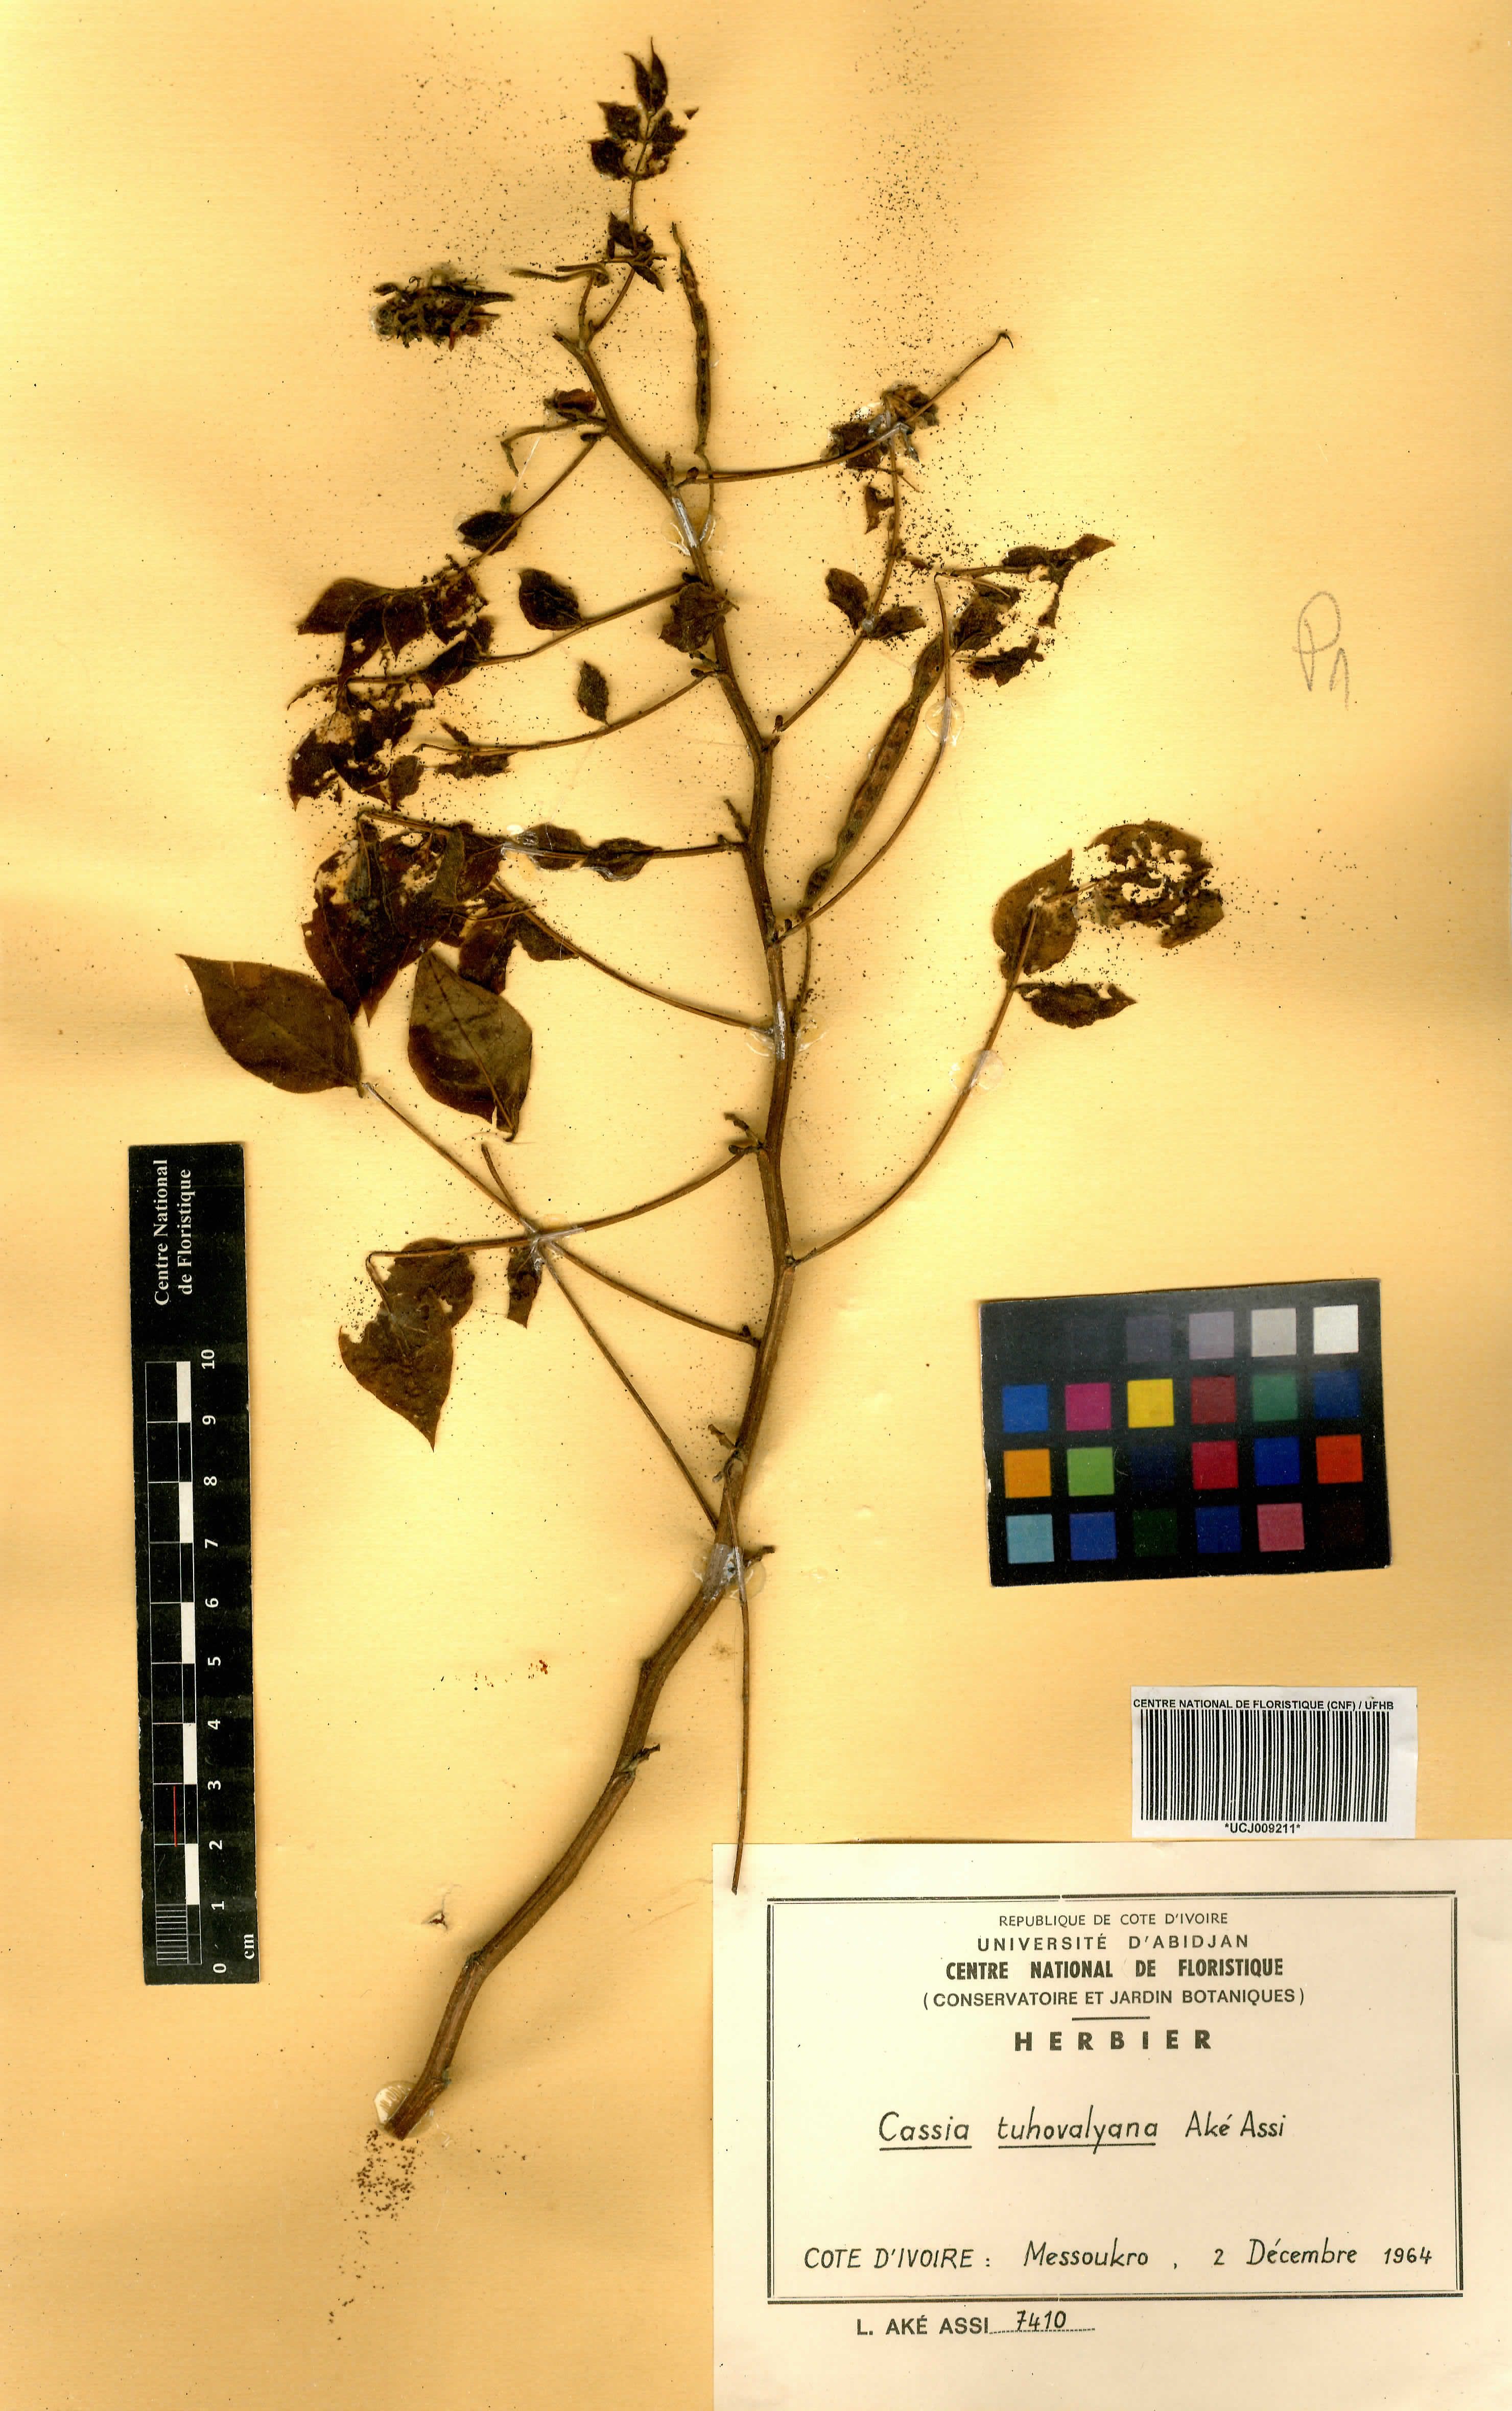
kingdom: Plantae
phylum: Tracheophyta
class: Magnoliopsida
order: Fabales
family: Fabaceae
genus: Senna
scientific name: Senna tuhovalyana
